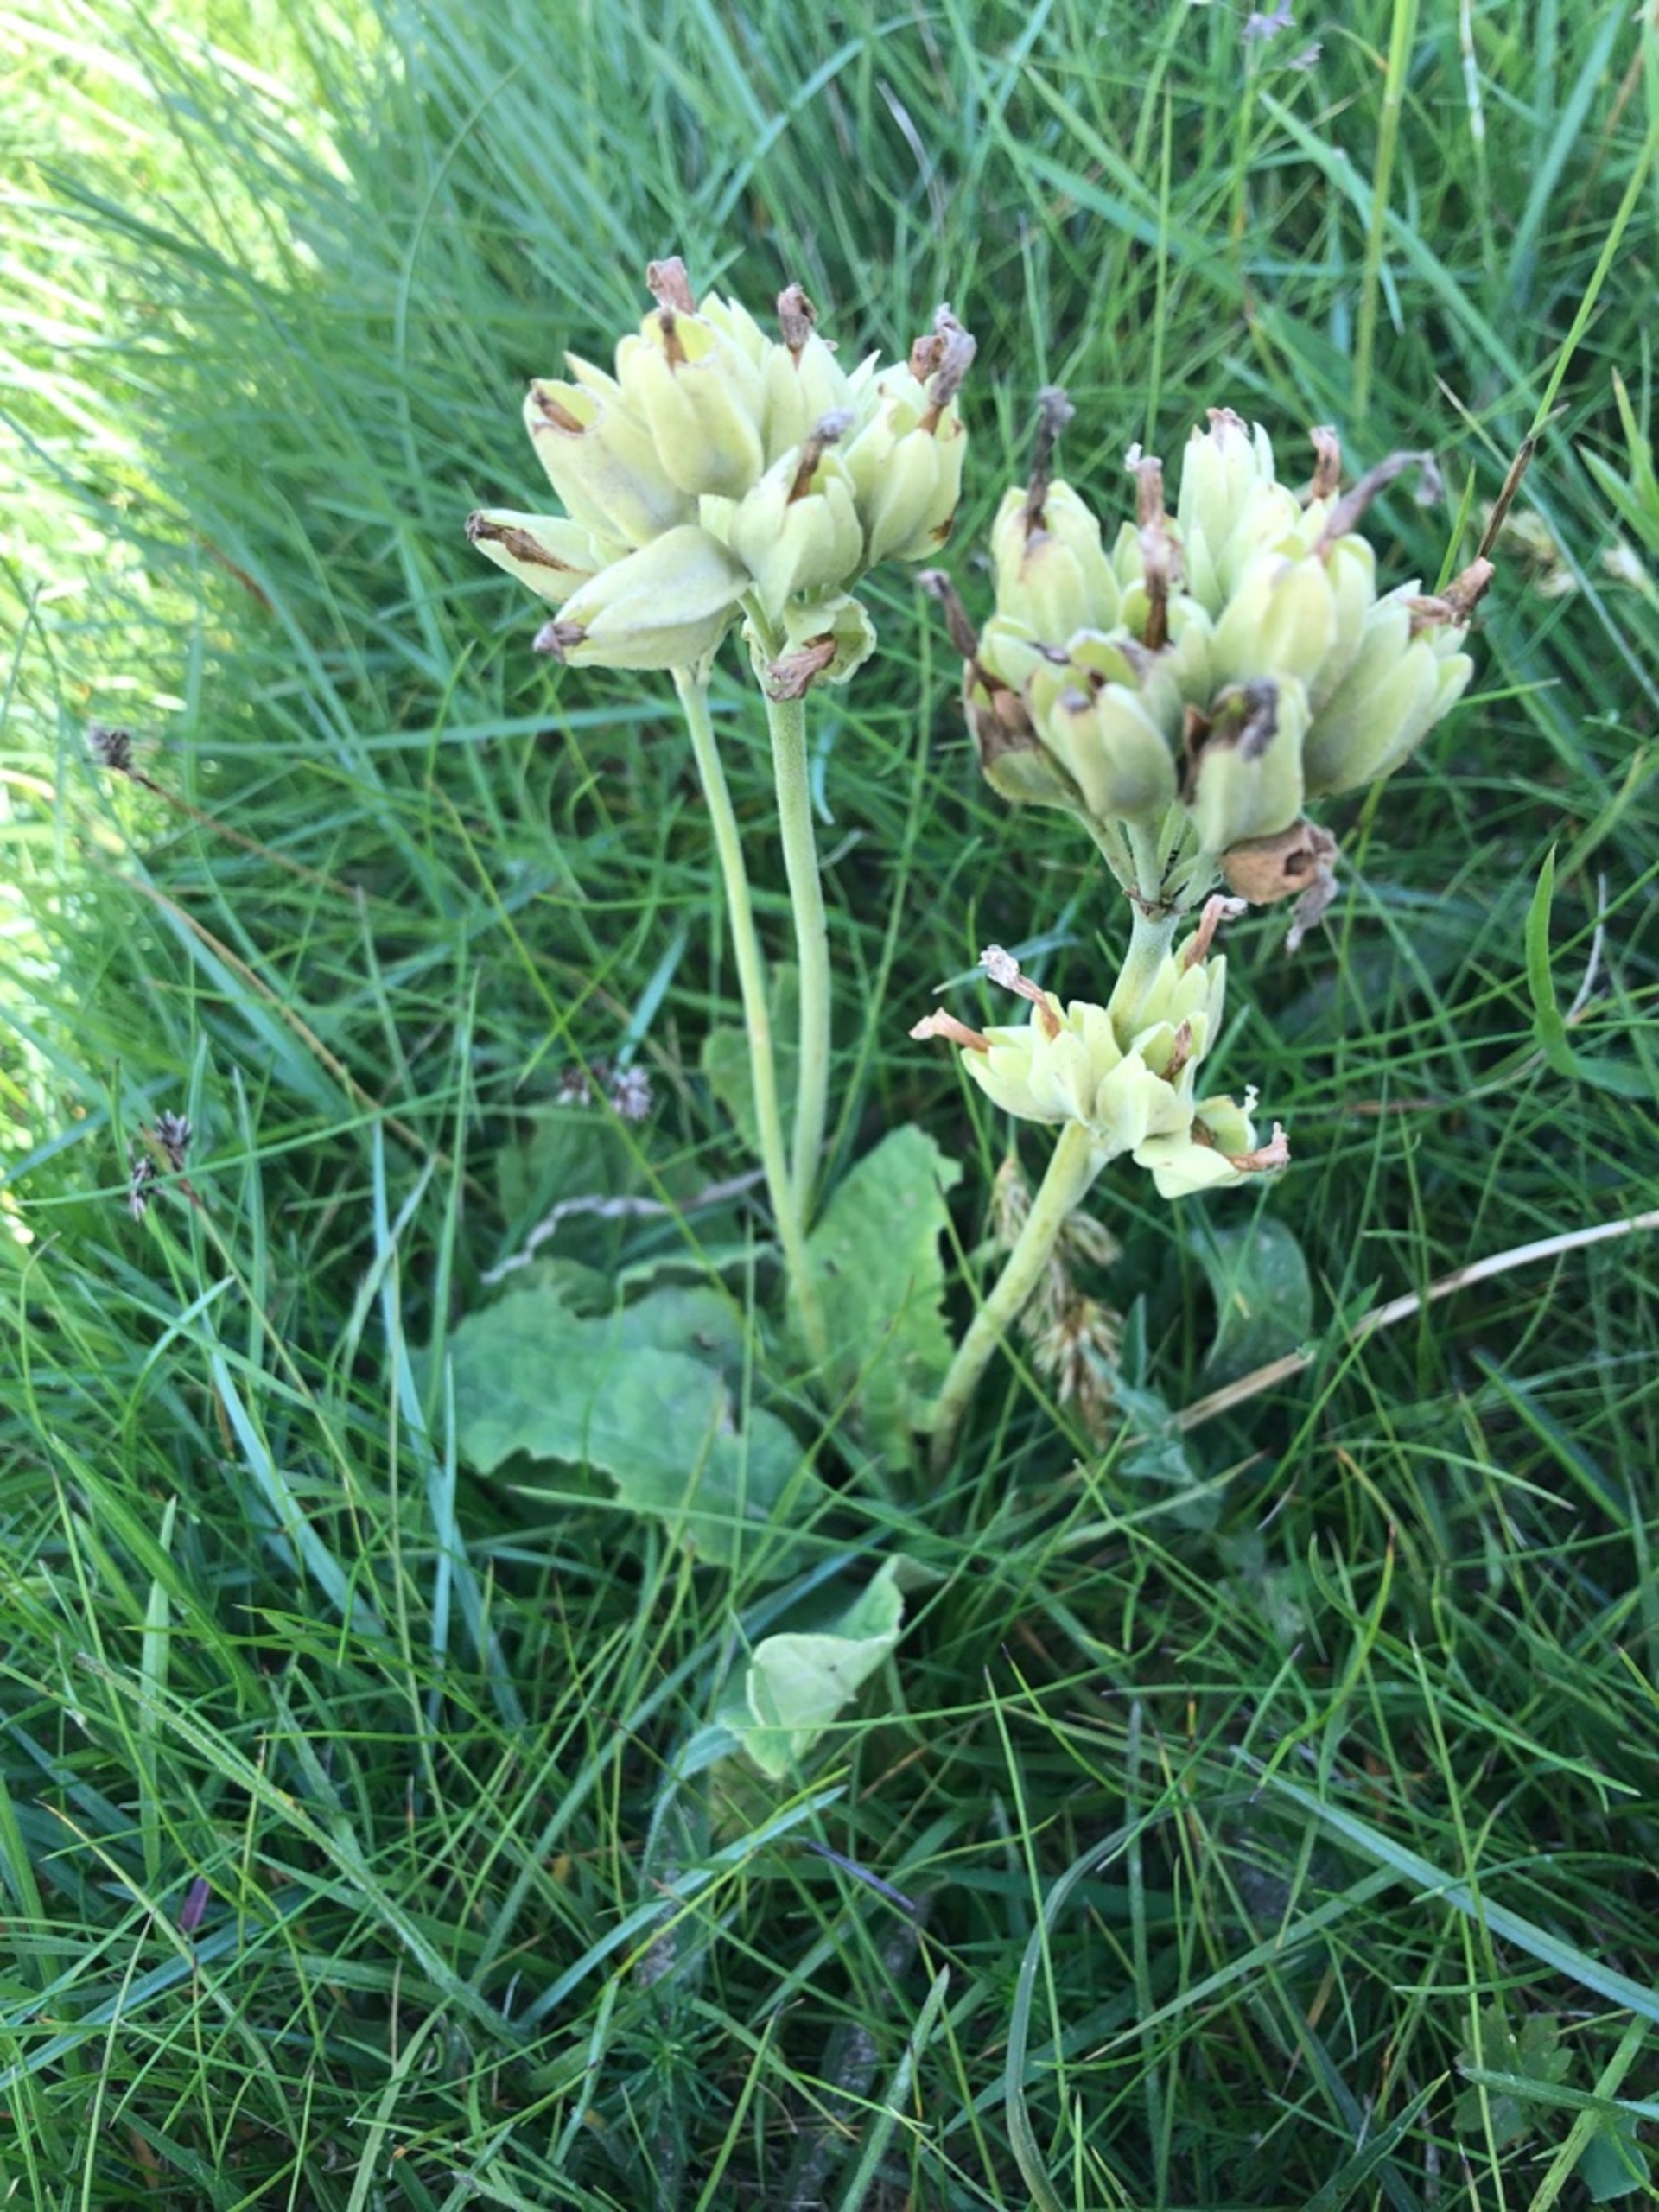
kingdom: Plantae
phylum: Tracheophyta
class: Magnoliopsida
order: Ericales
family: Primulaceae
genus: Primula
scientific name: Primula veris
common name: Hulkravet kodriver
